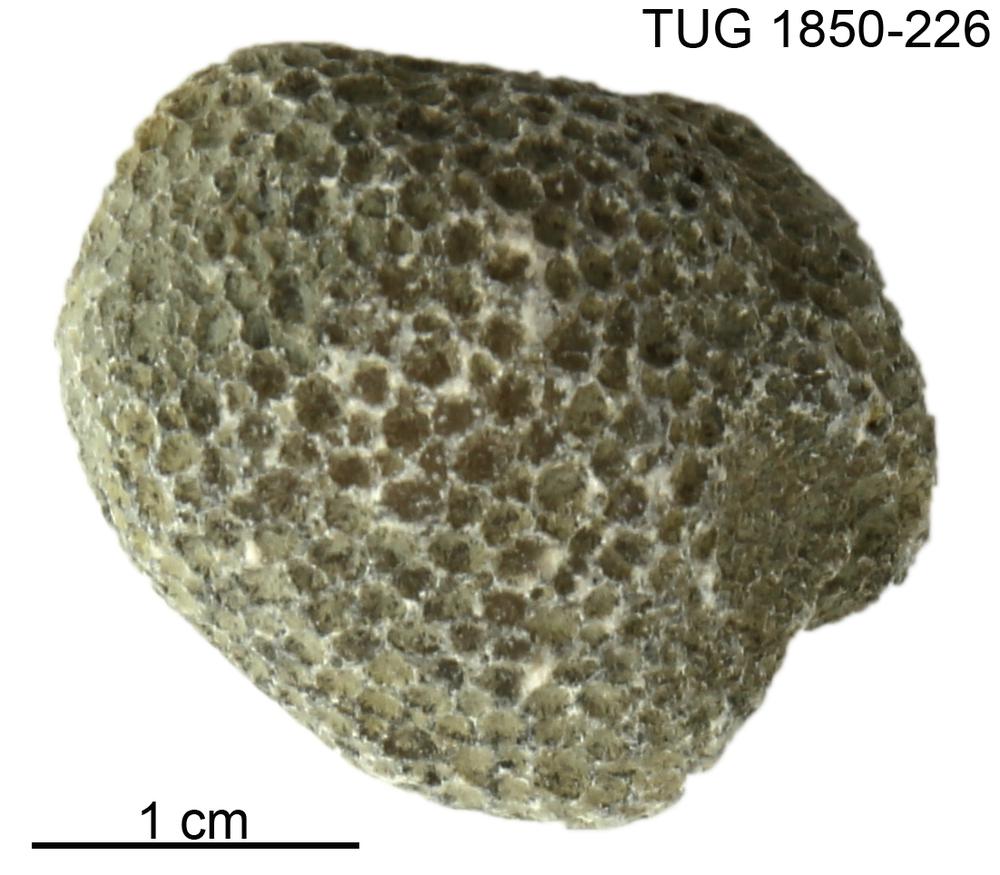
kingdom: Animalia
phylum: Cnidaria
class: Anthozoa
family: Favositidae
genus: Favosites
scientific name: Favosites
